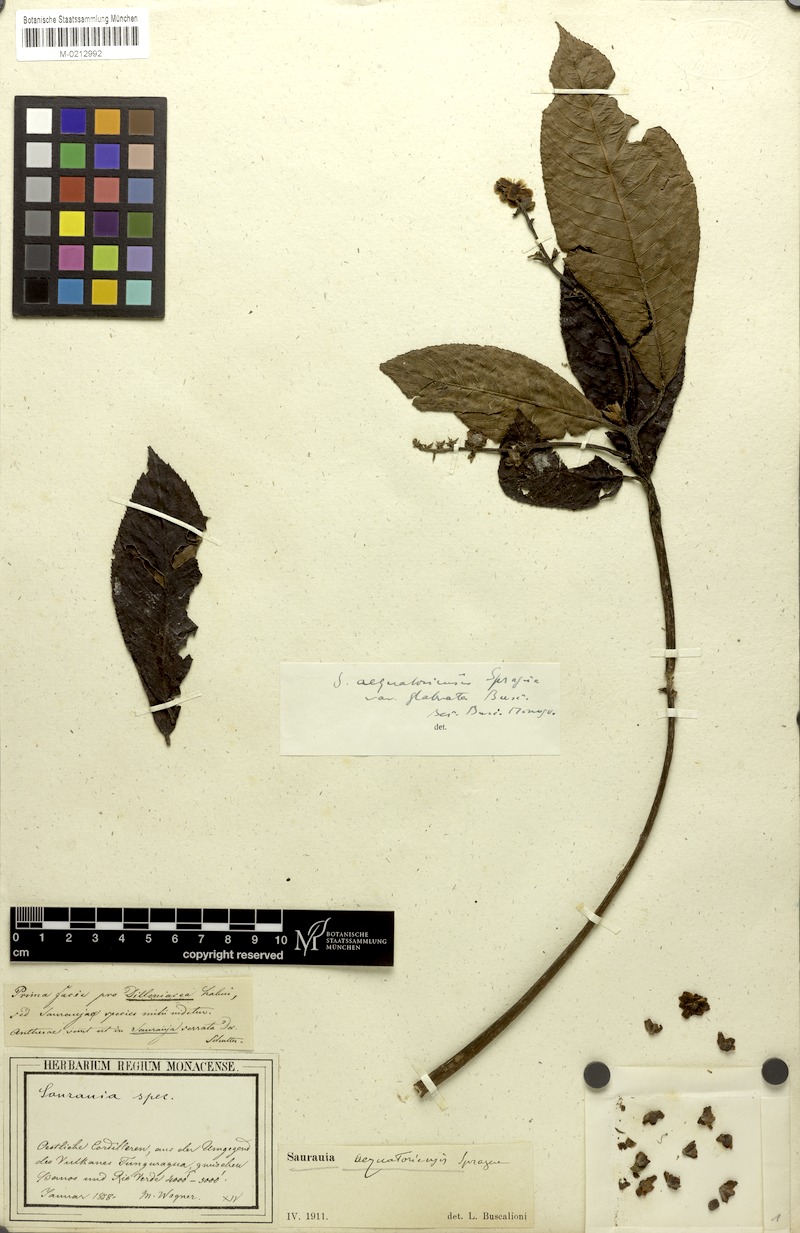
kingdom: Plantae
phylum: Tracheophyta
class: Magnoliopsida
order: Ericales
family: Actinidiaceae
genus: Saurauia
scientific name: Saurauia aequatoriensis
